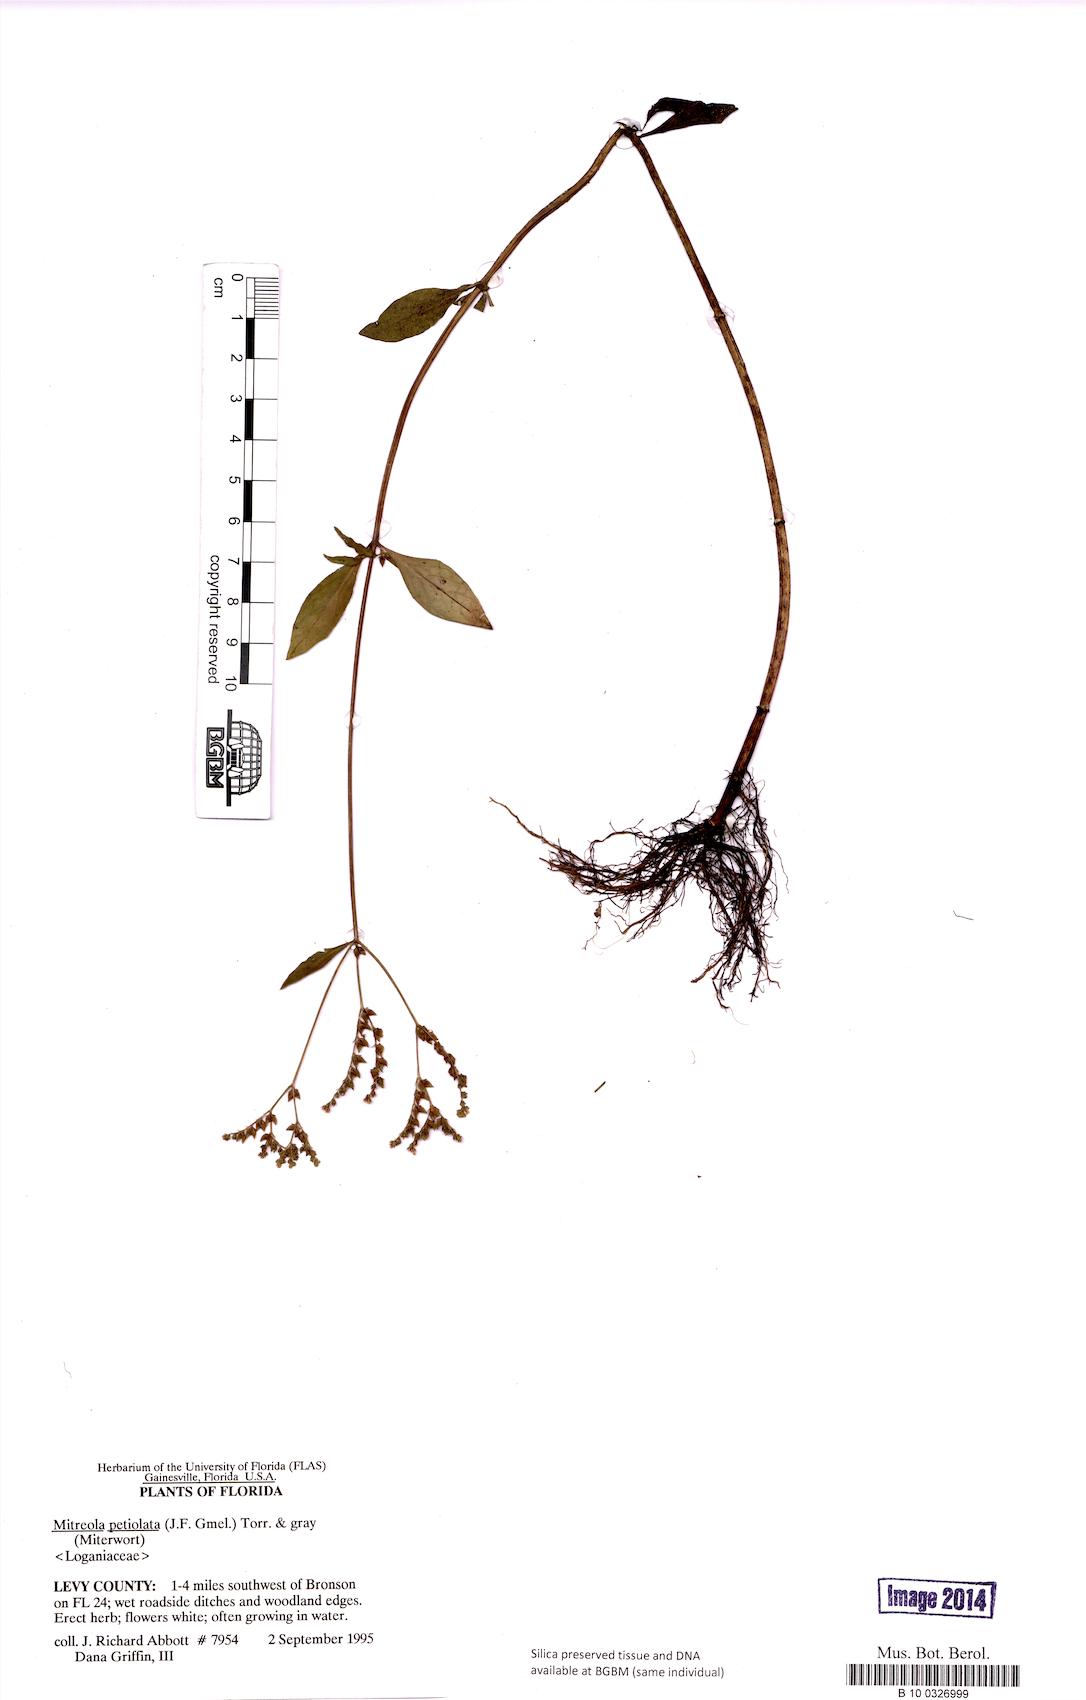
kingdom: Plantae
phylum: Tracheophyta
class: Magnoliopsida
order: Gentianales
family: Loganiaceae
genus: Mitreola
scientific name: Mitreola petiolata
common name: Lax hornpod
